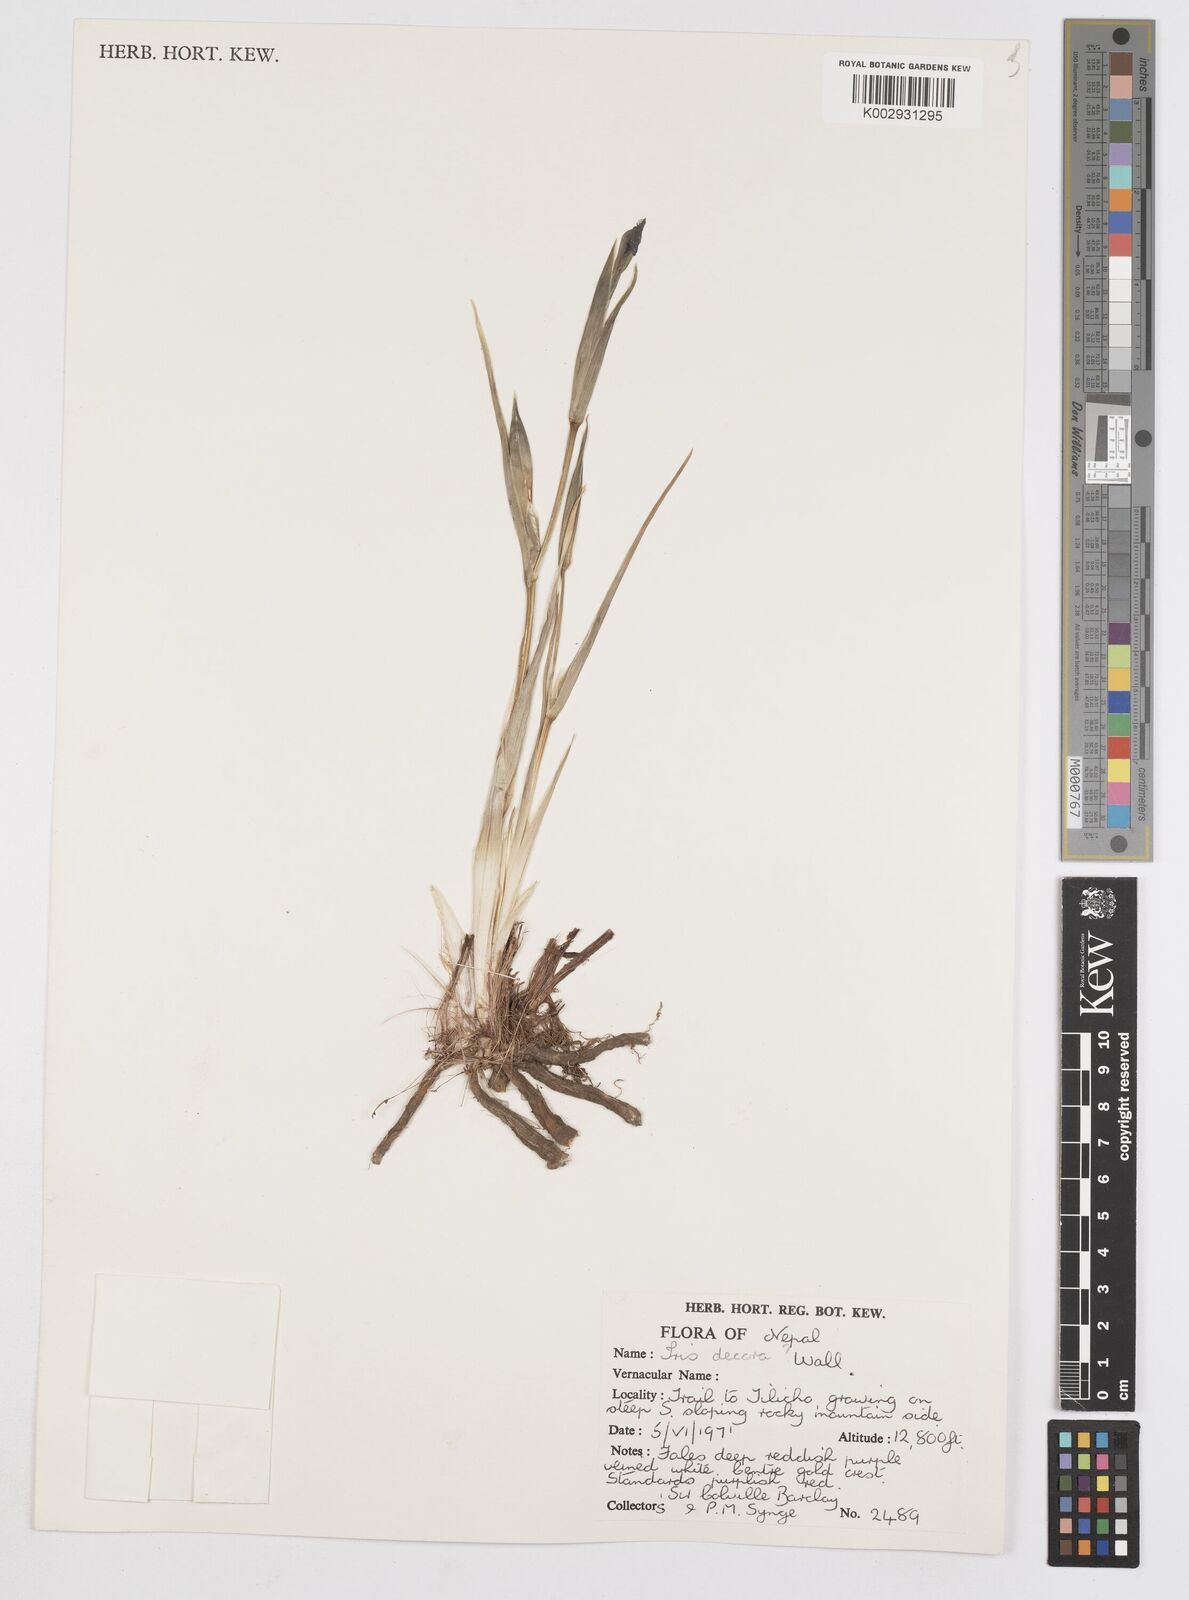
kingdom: Plantae
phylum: Tracheophyta
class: Liliopsida
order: Asparagales
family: Iridaceae
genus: Iris
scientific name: Iris decora
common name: Nepal iris
